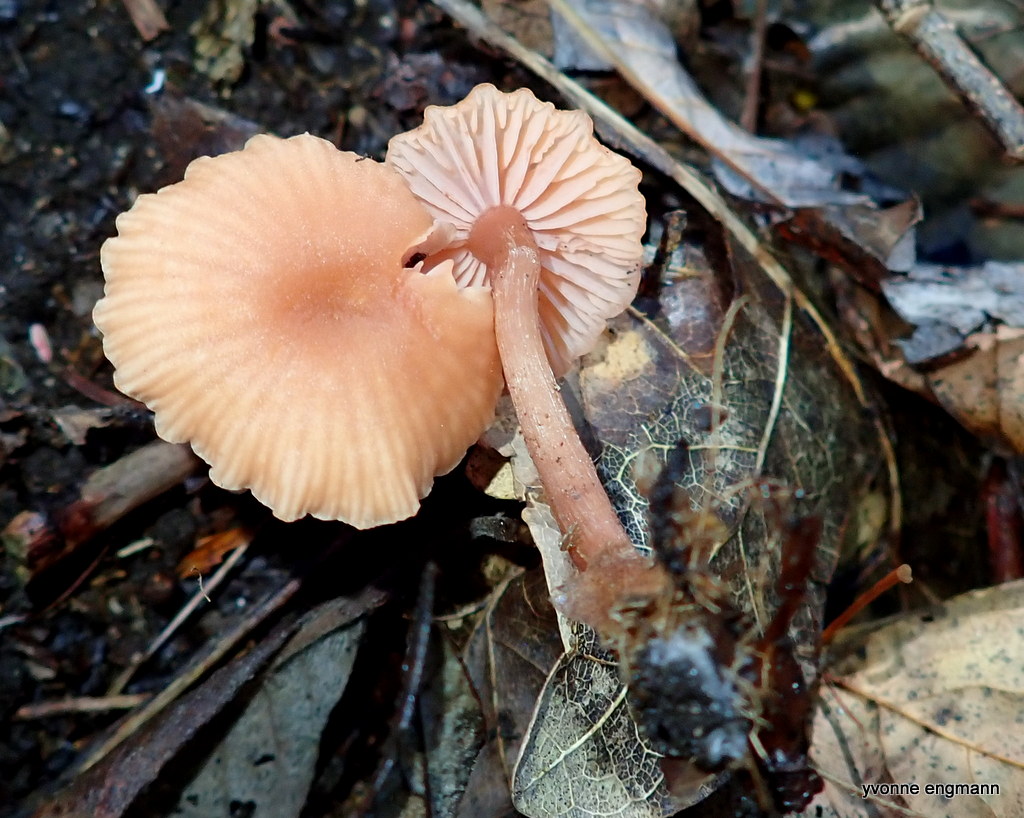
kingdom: Fungi
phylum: Basidiomycota
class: Agaricomycetes
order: Agaricales
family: Hydnangiaceae
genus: Laccaria
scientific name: Laccaria laccata
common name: rød ametysthat
